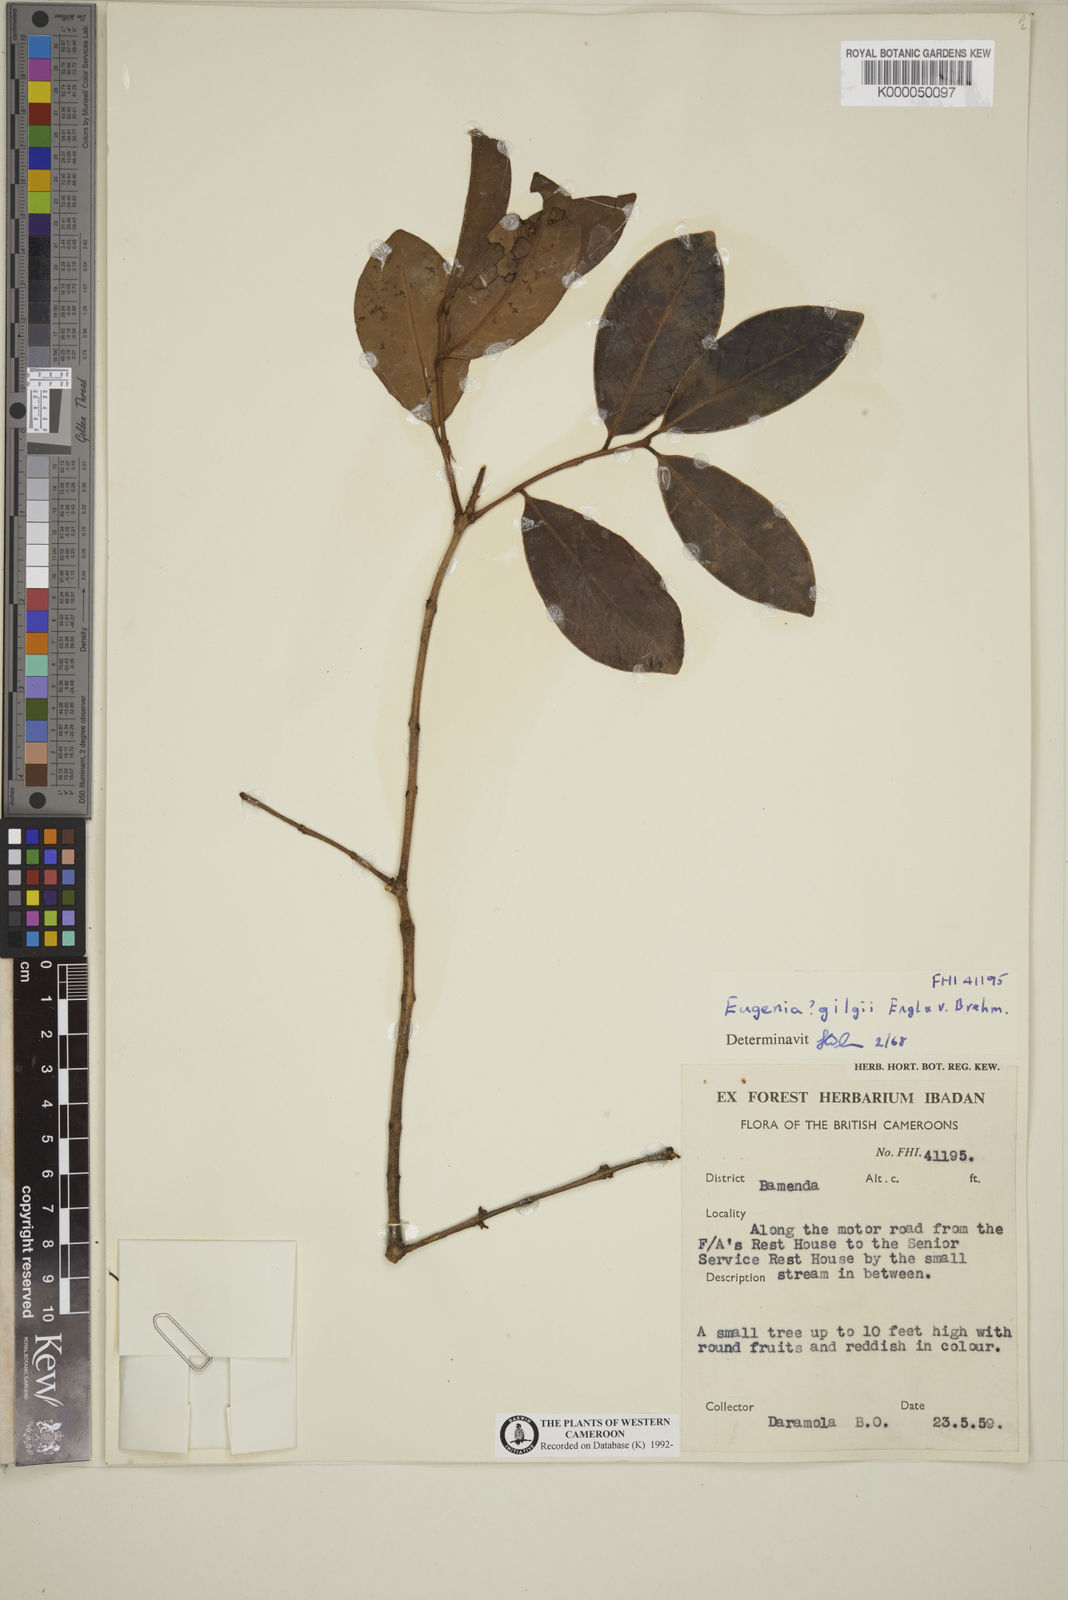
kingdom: Plantae
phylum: Tracheophyta
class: Magnoliopsida
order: Myrtales
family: Myrtaceae
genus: Eugenia
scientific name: Eugenia gilgii
